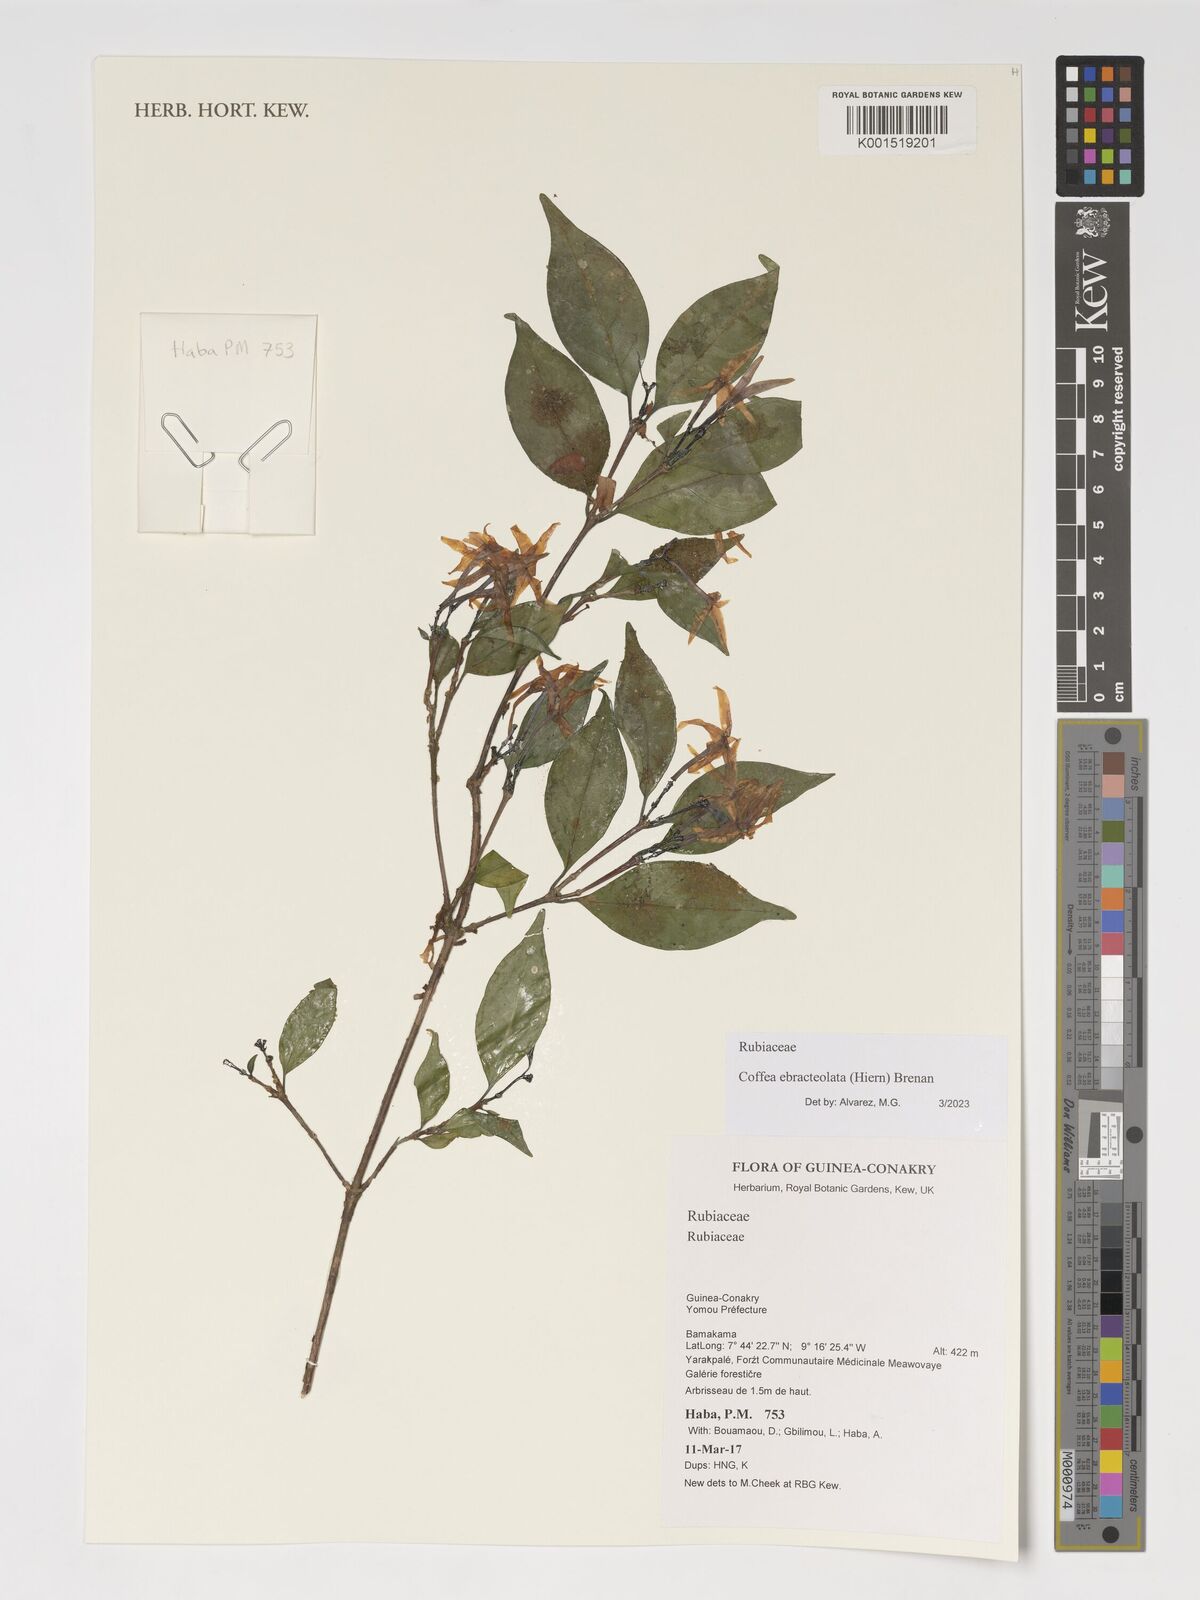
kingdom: Plantae
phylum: Tracheophyta
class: Magnoliopsida
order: Gentianales
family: Rubiaceae
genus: Coffea
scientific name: Coffea ebracteolata
